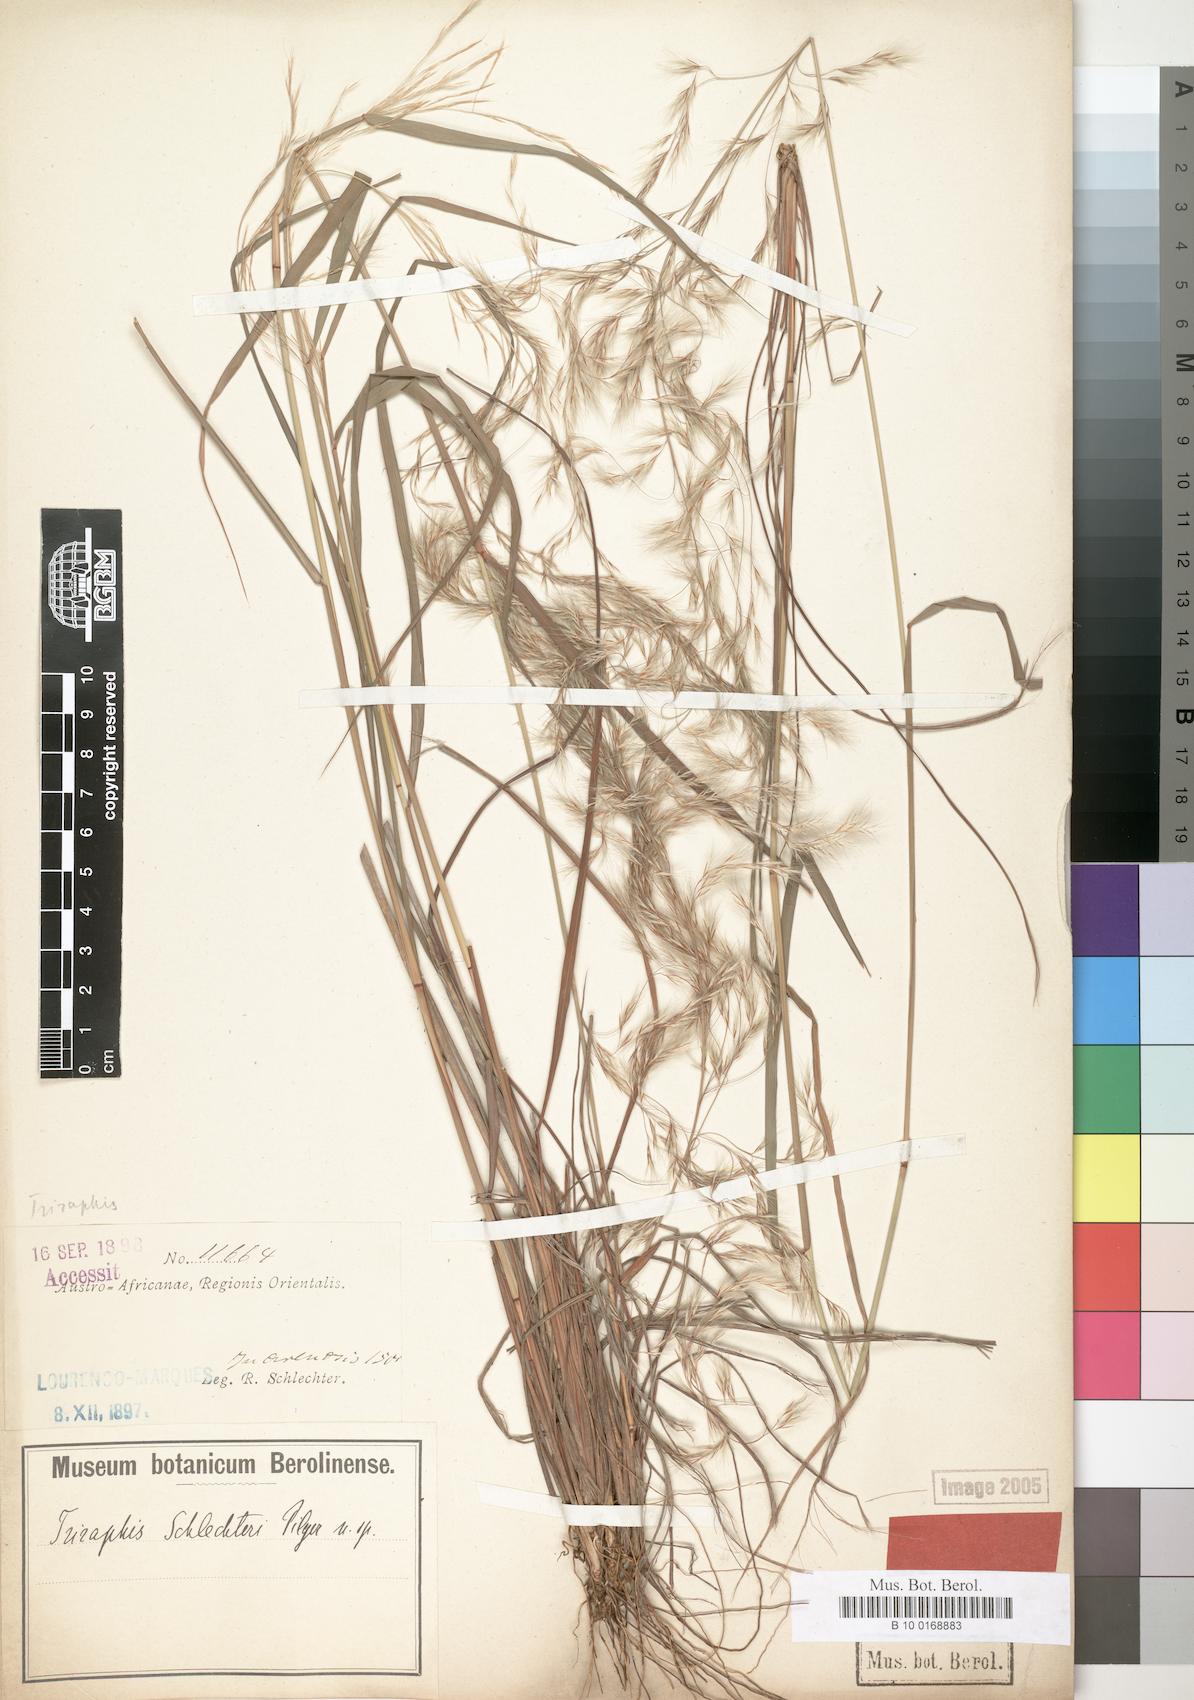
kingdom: Plantae
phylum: Tracheophyta
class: Liliopsida
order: Poales
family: Poaceae
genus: Triraphis
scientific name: Triraphis schinzii
